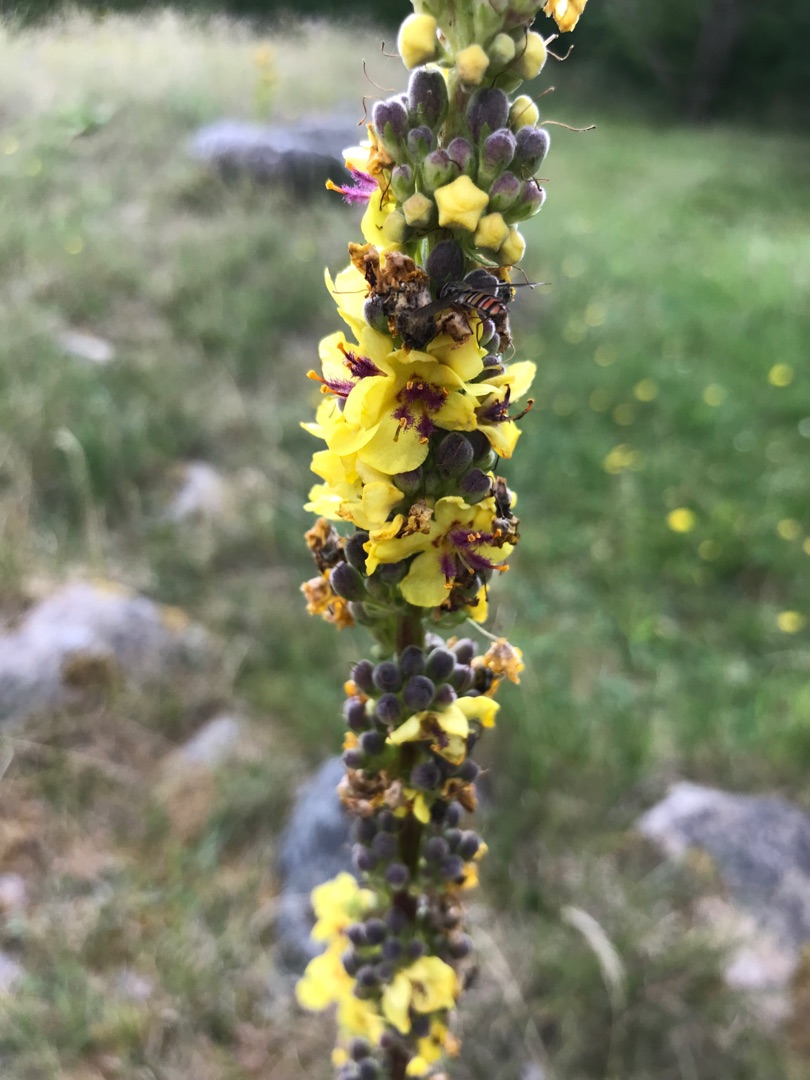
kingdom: Plantae
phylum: Tracheophyta
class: Magnoliopsida
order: Lamiales
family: Scrophulariaceae
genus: Verbascum
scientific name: Verbascum nigrum
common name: Mørk kongelys
